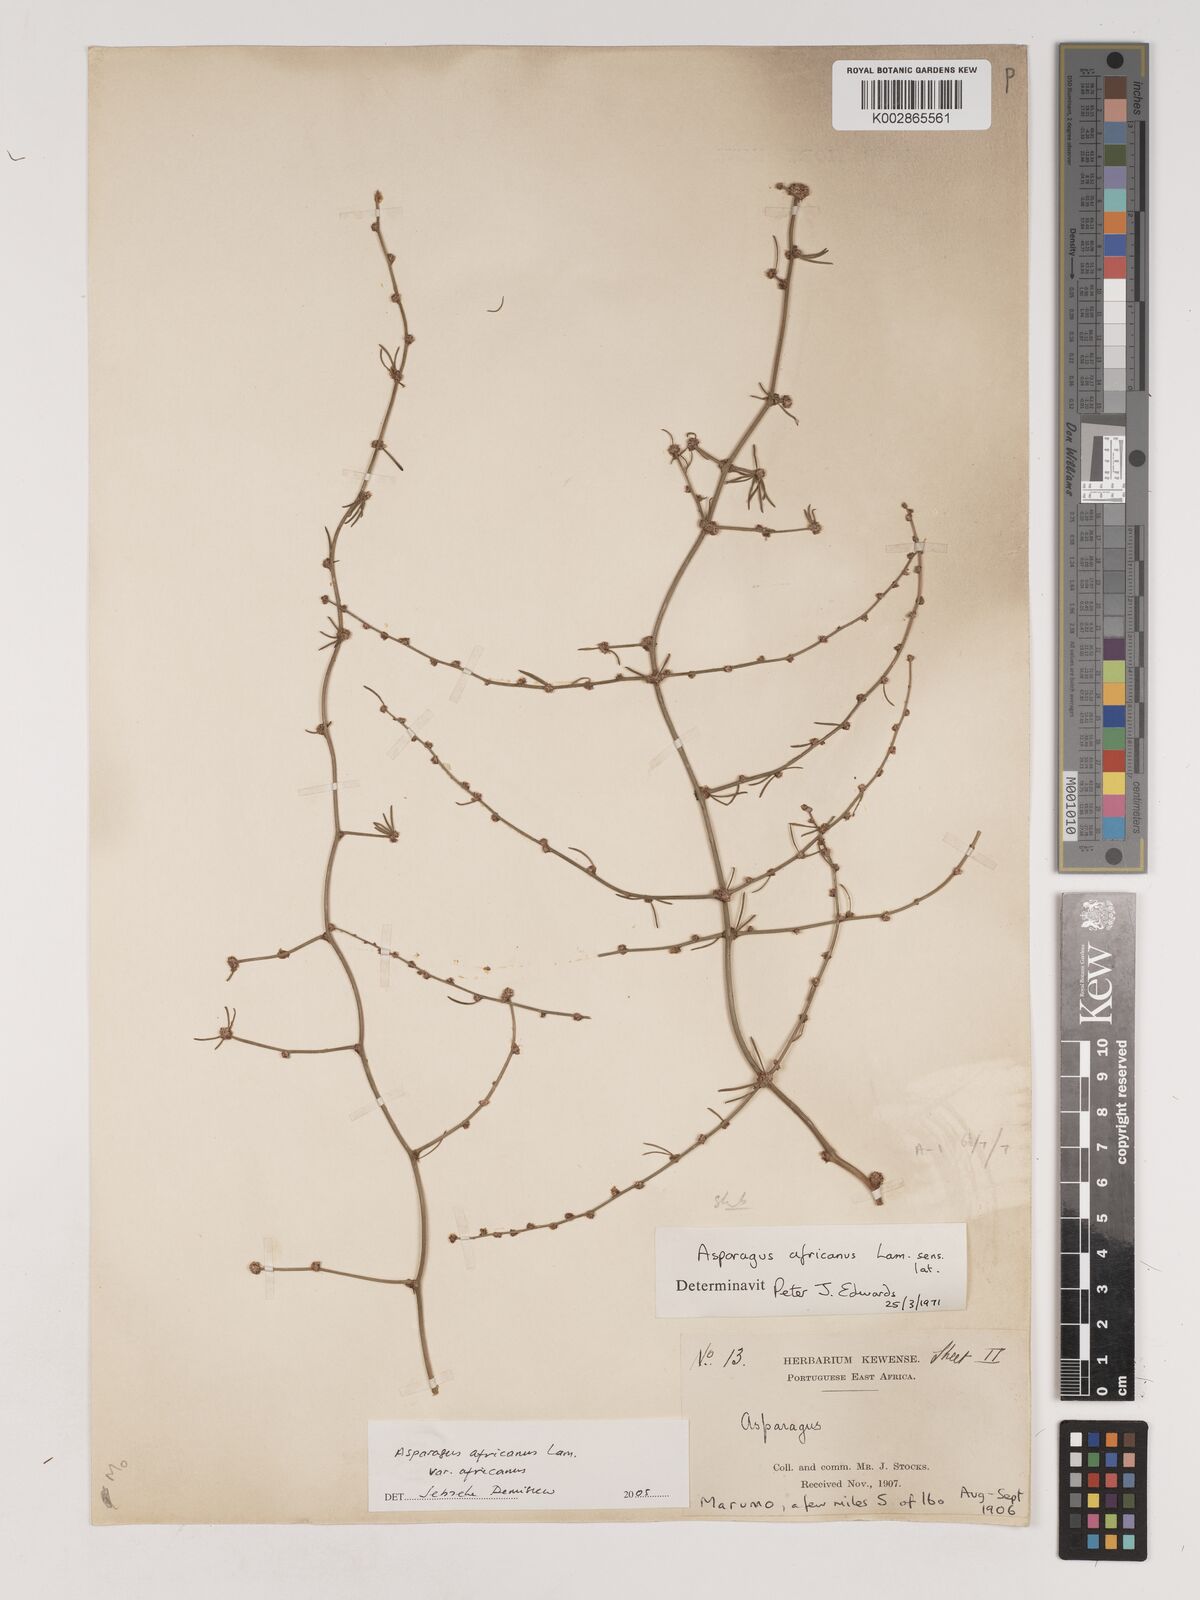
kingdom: Plantae
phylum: Tracheophyta
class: Liliopsida
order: Asparagales
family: Asparagaceae
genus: Asparagus
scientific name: Asparagus africanus
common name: Asparagus-fern
